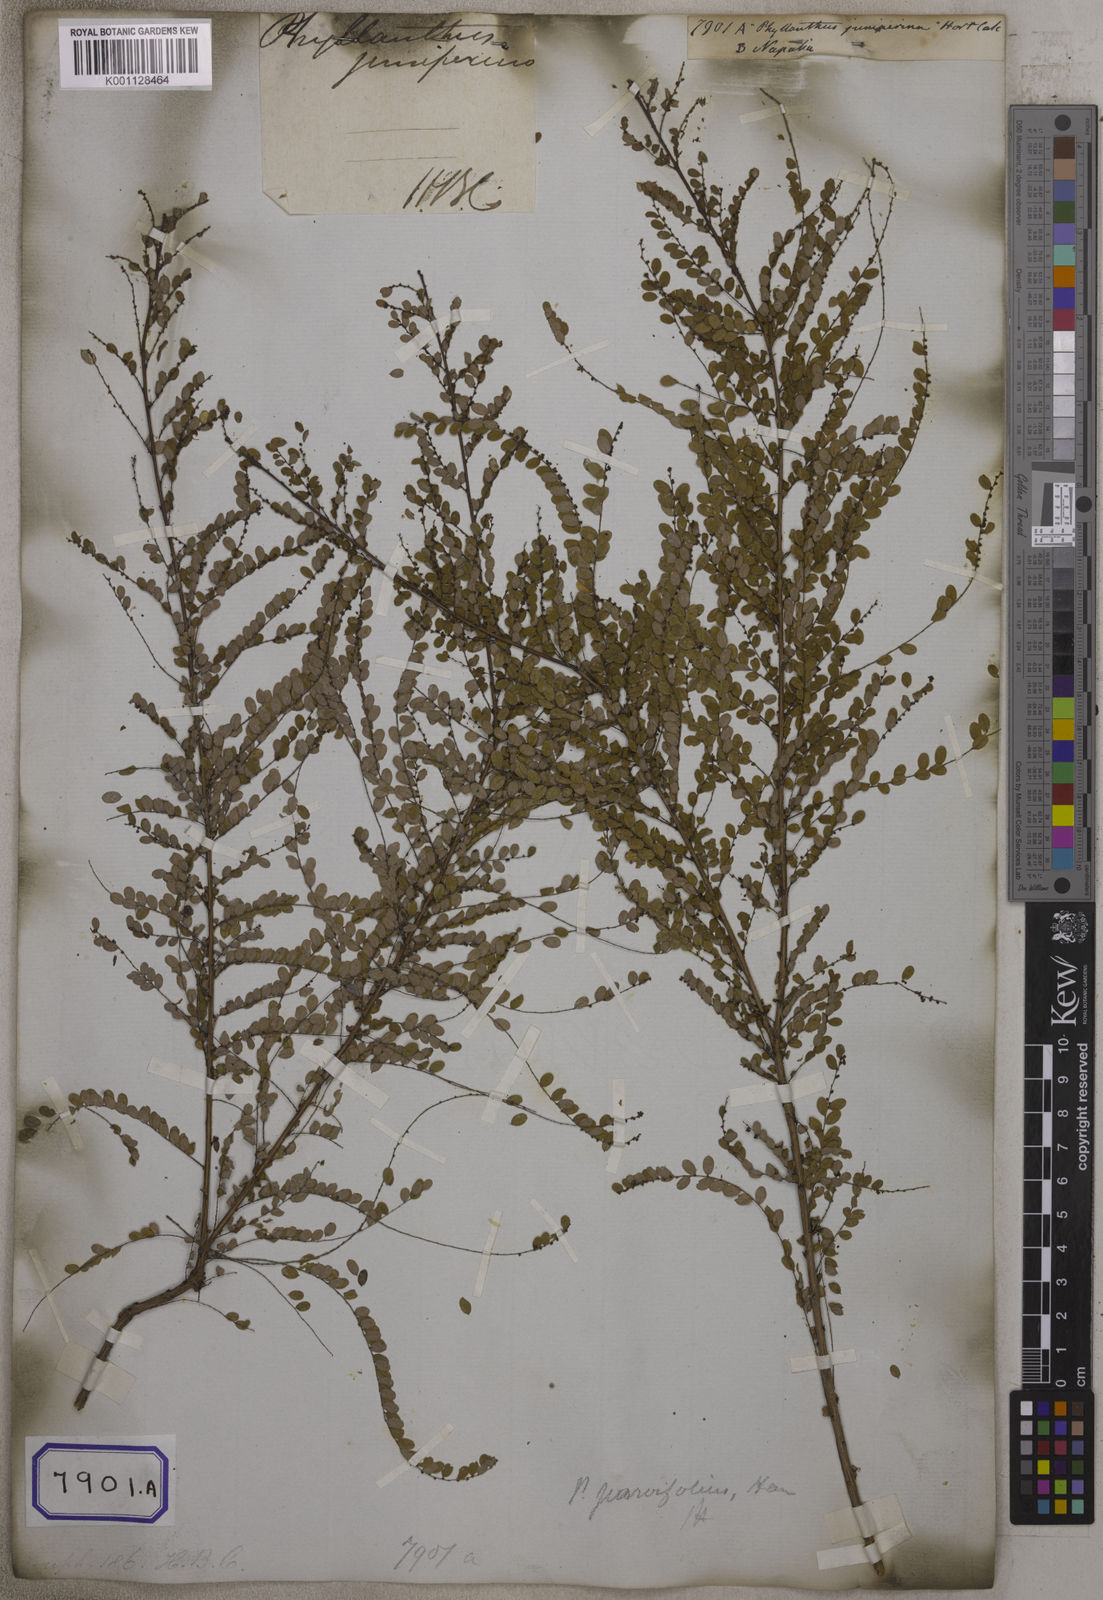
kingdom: Plantae
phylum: Tracheophyta
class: Magnoliopsida
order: Malpighiales
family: Euphorbiaceae
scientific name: Euphorbiaceae
